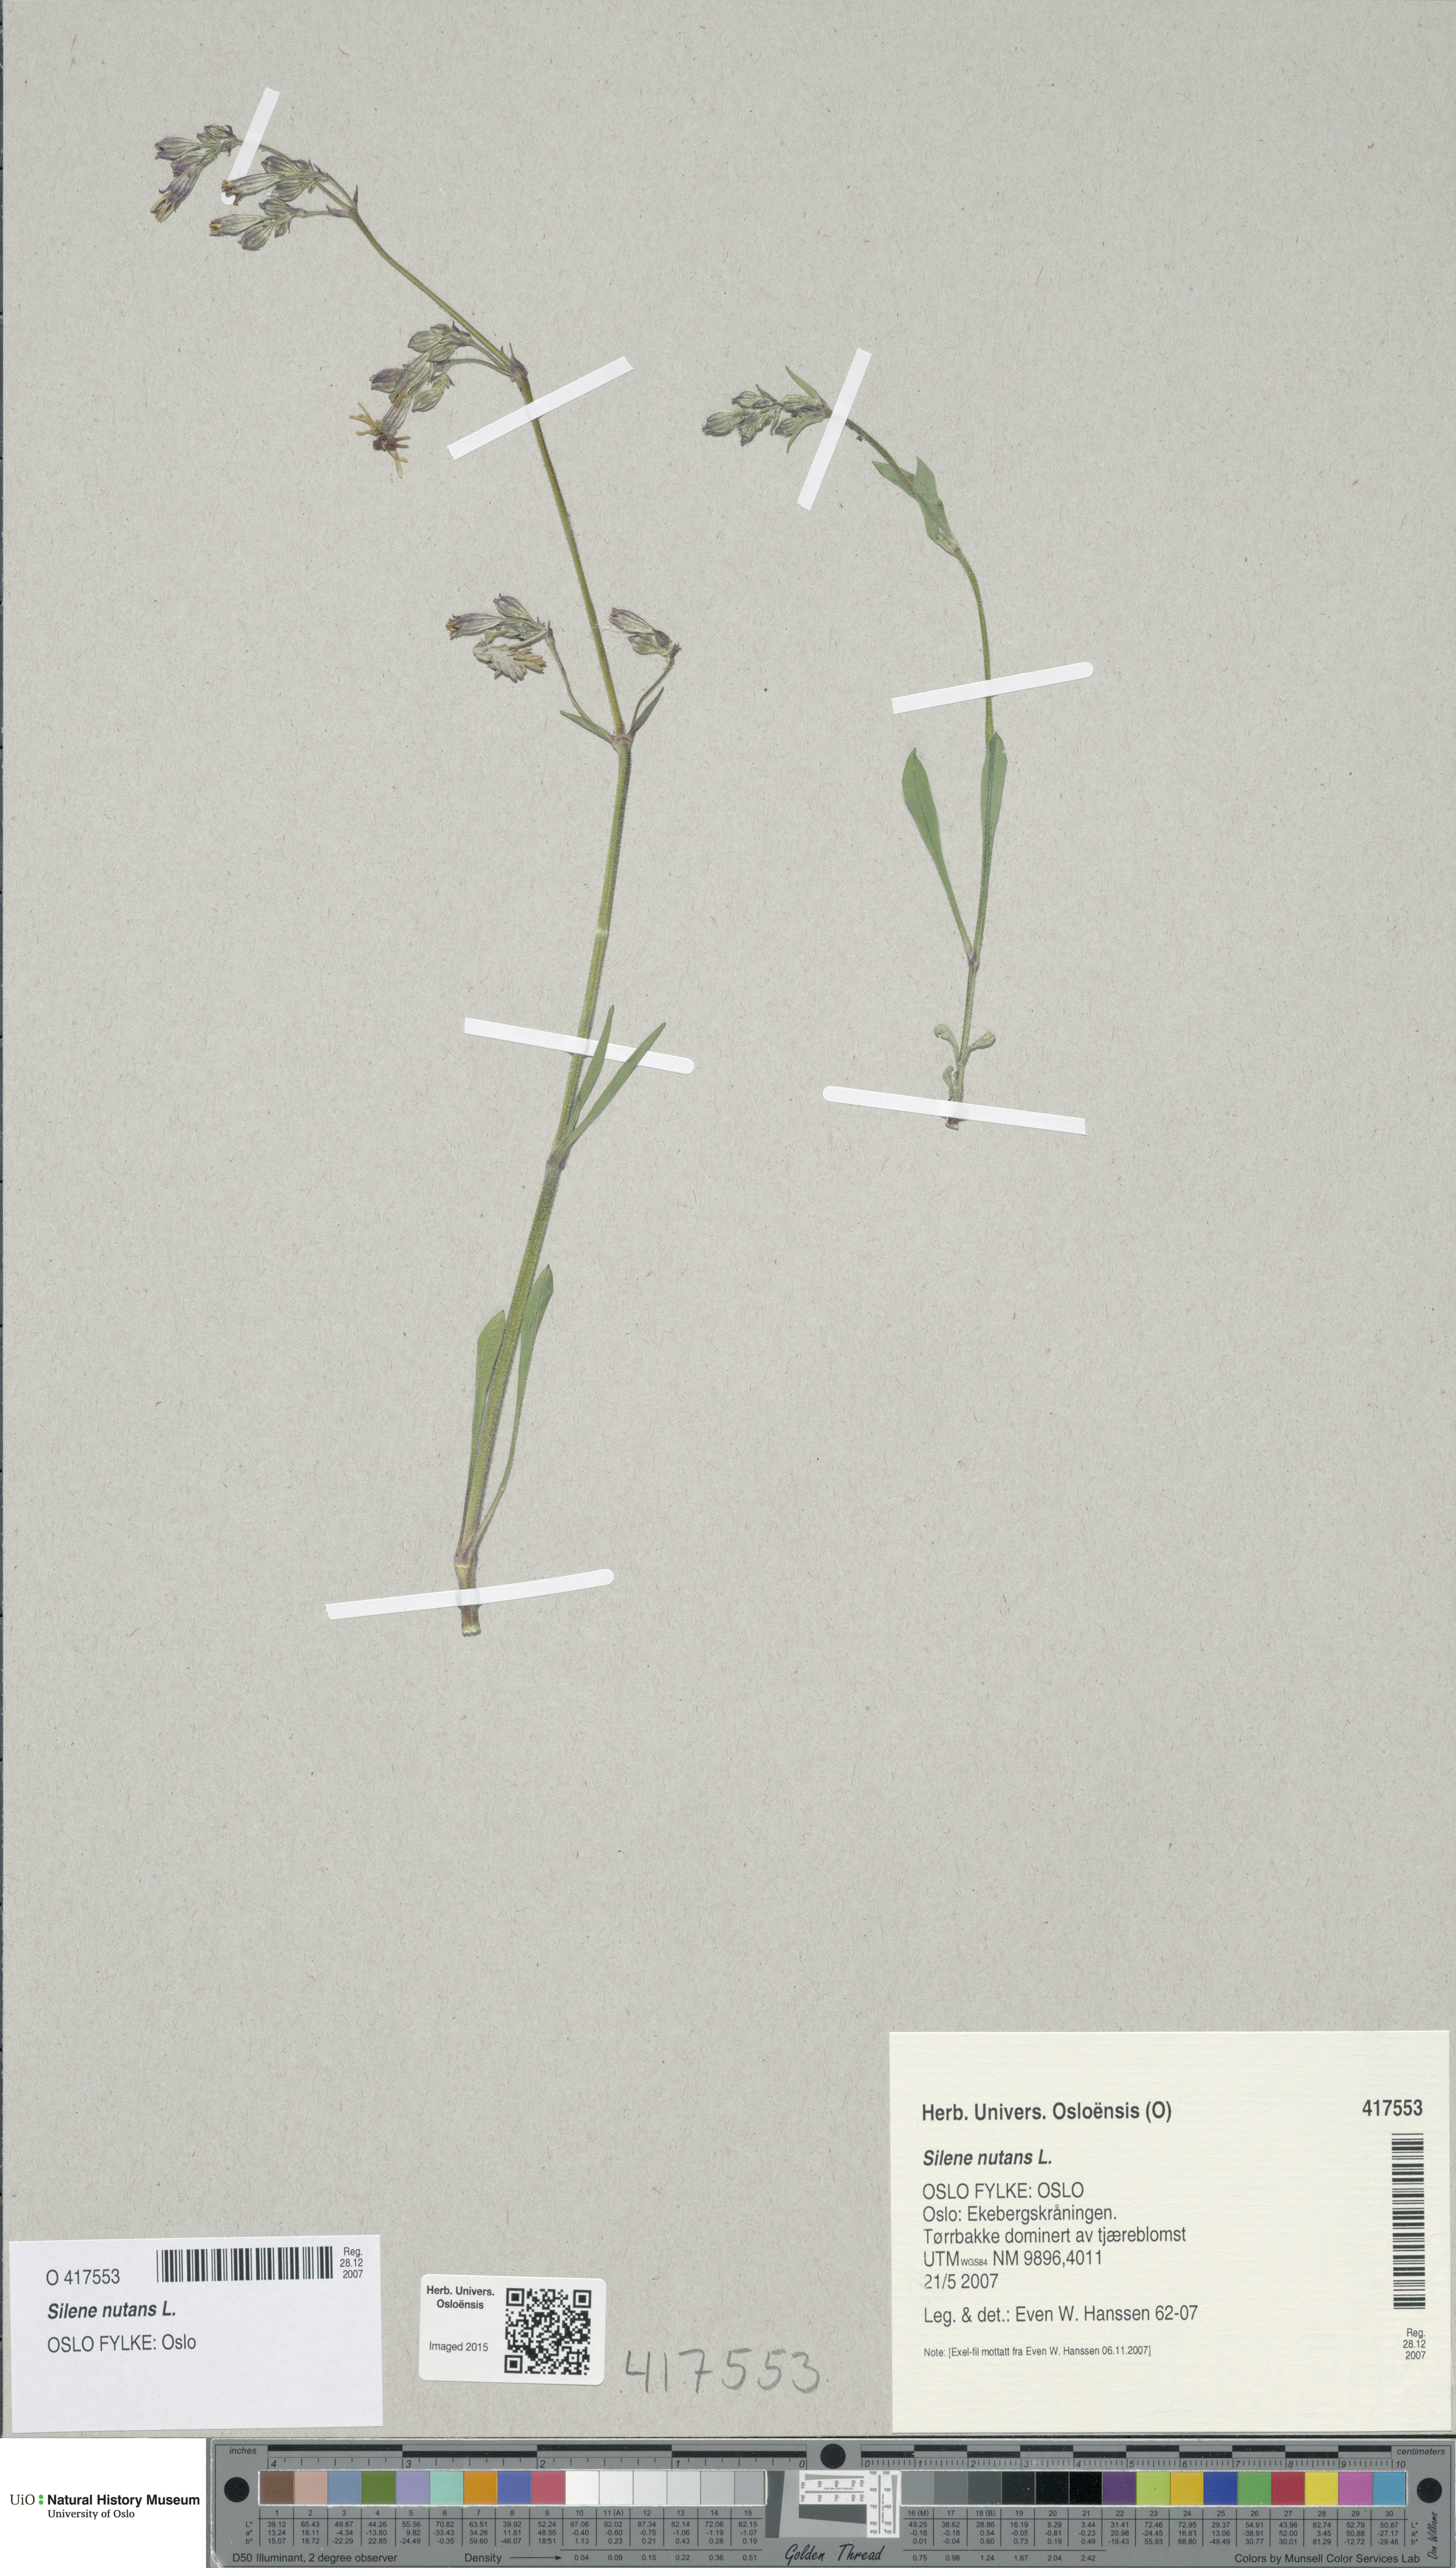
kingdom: Plantae
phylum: Tracheophyta
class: Magnoliopsida
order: Caryophyllales
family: Caryophyllaceae
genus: Silene
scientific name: Silene nutans
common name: Nottingham catchfly
